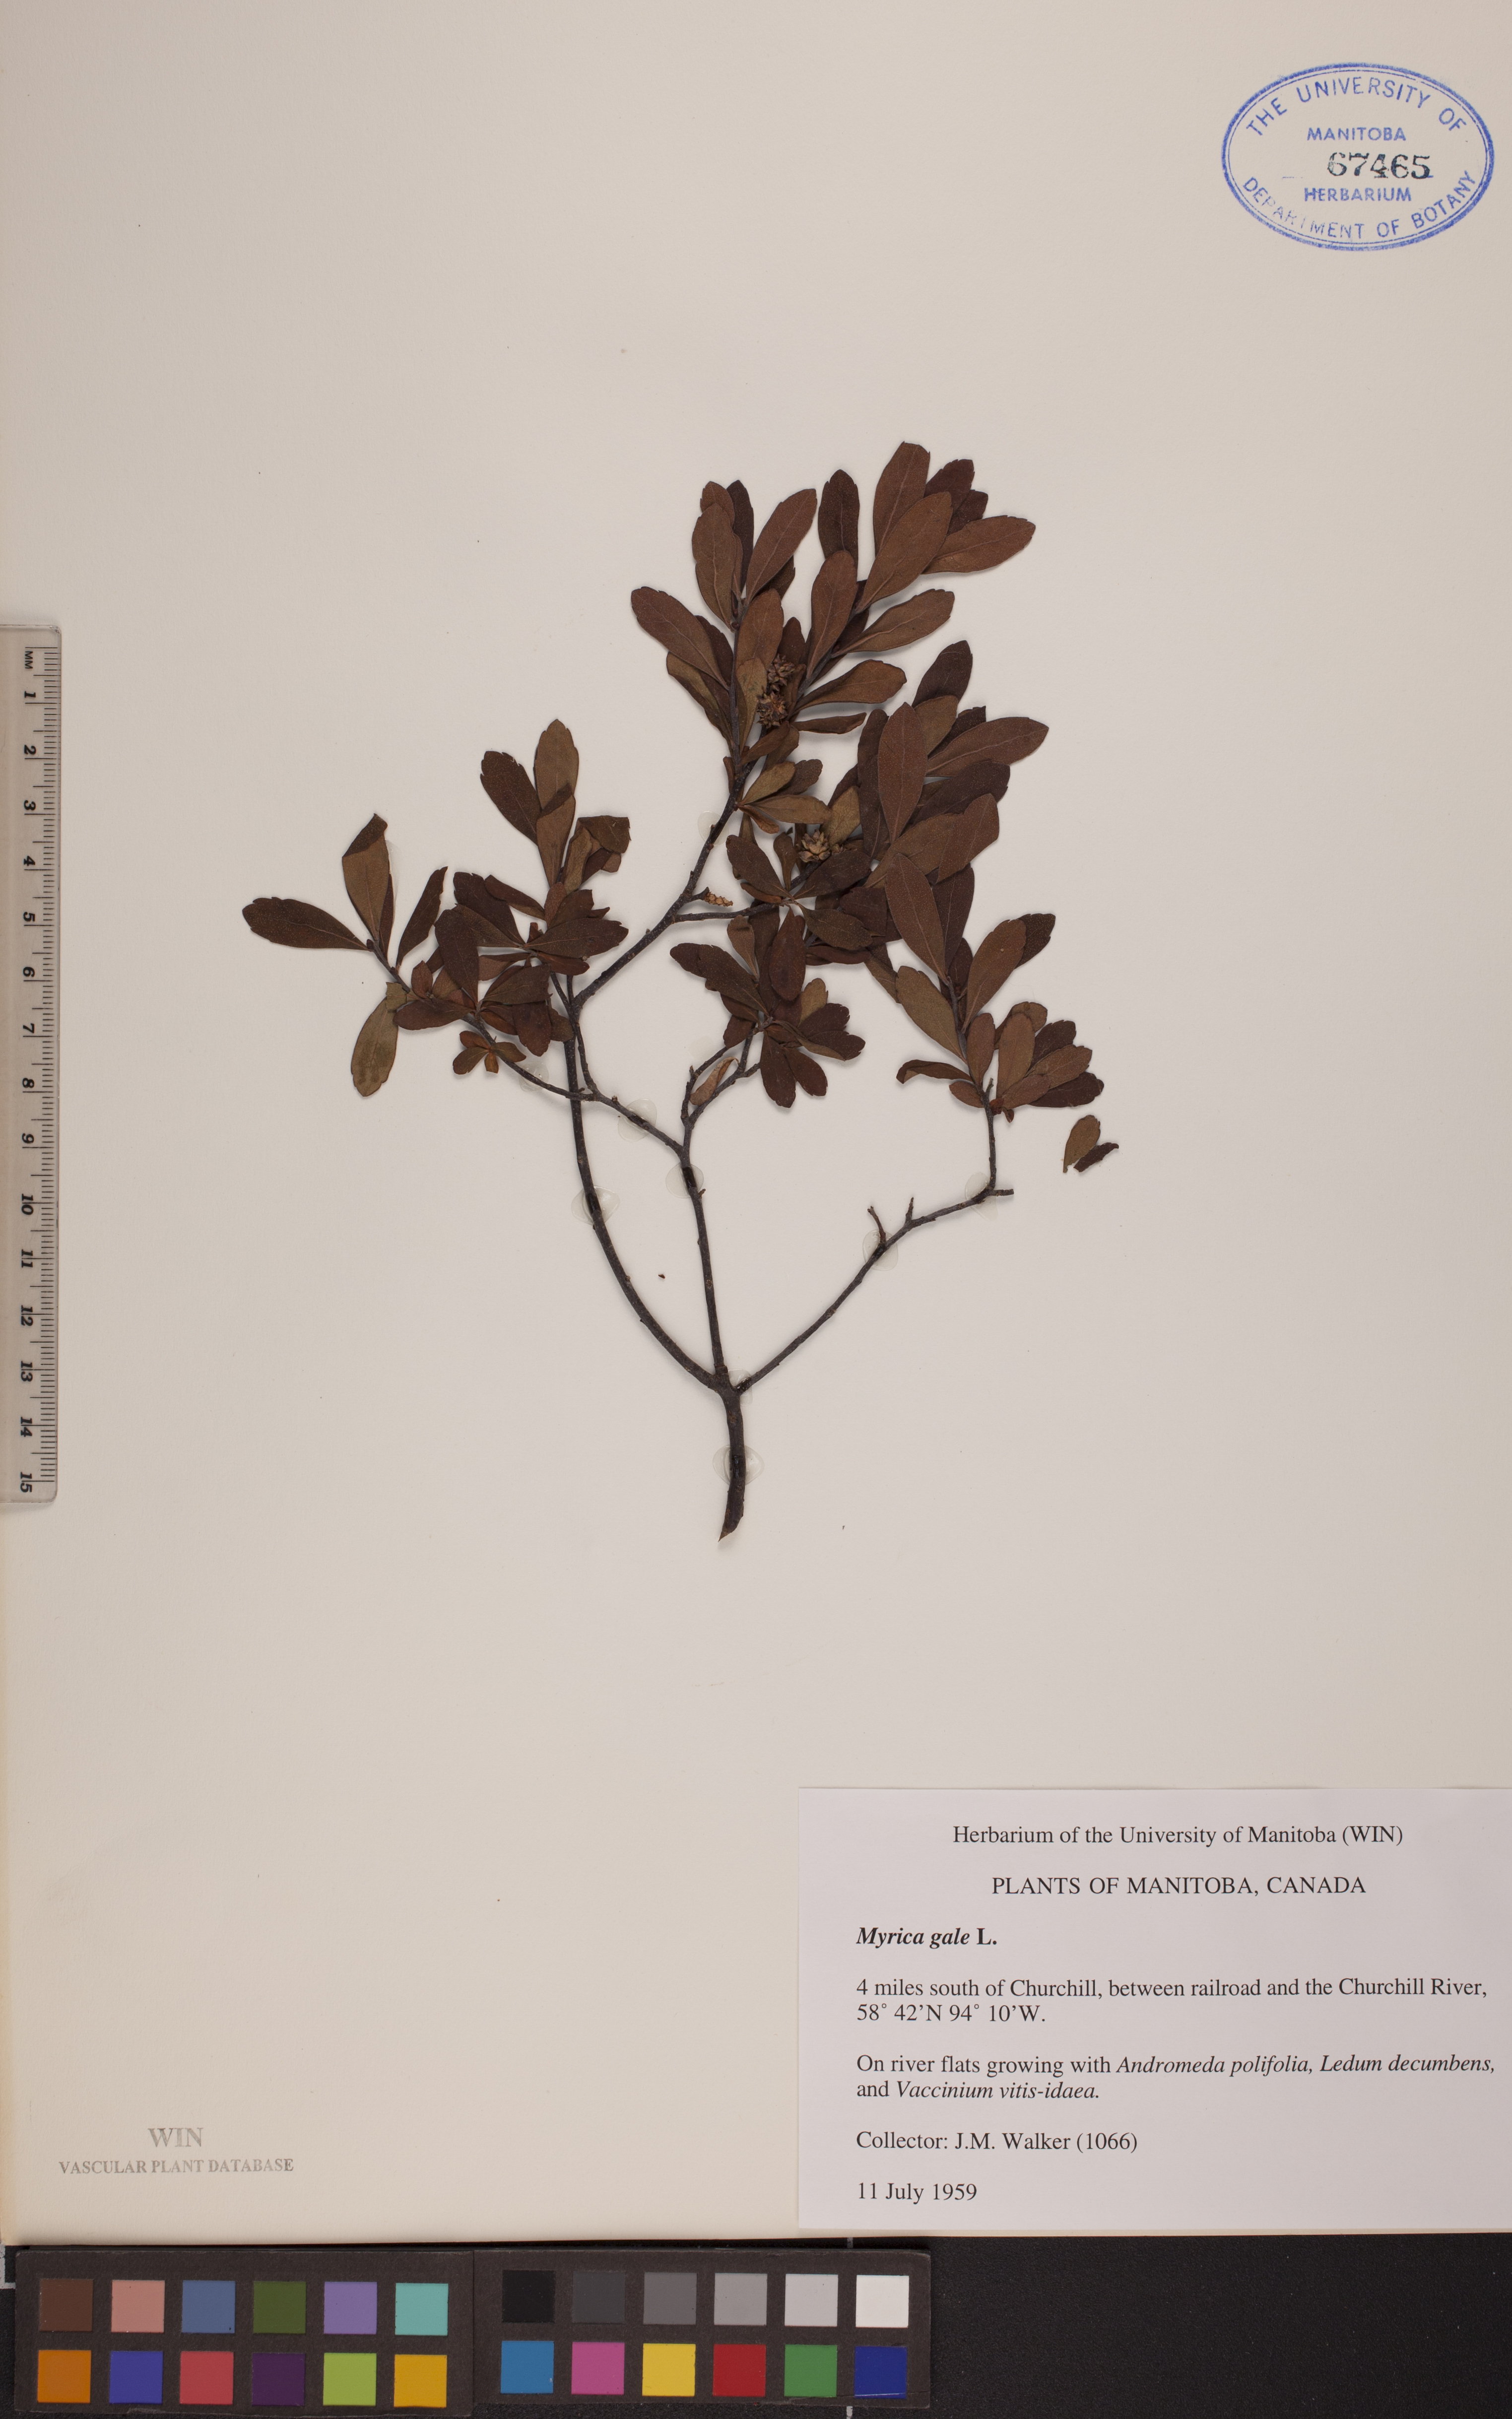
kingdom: Plantae
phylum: Tracheophyta
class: Magnoliopsida
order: Fagales
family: Myricaceae
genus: Myrica
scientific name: Myrica gale
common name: Sweet gale
